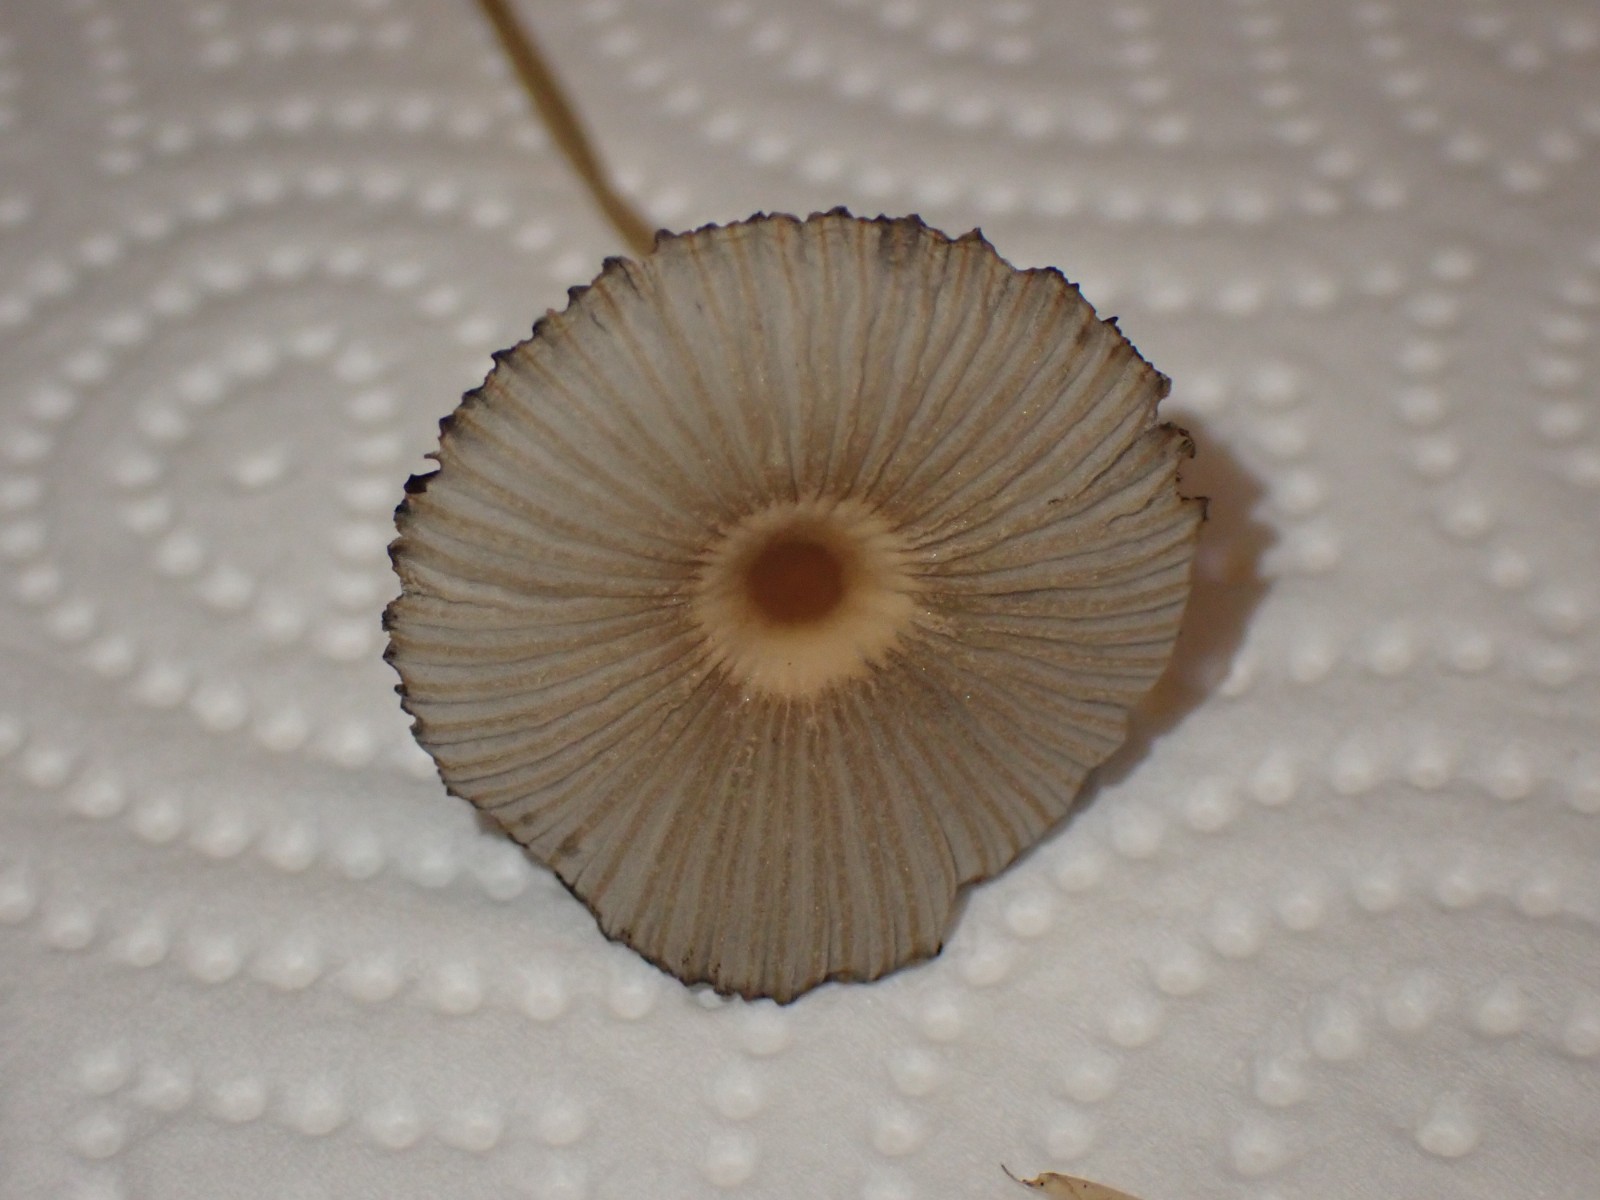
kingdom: Fungi
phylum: Basidiomycota
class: Agaricomycetes
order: Agaricales
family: Psathyrellaceae
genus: Parasola
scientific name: Parasola
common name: hjulhat
